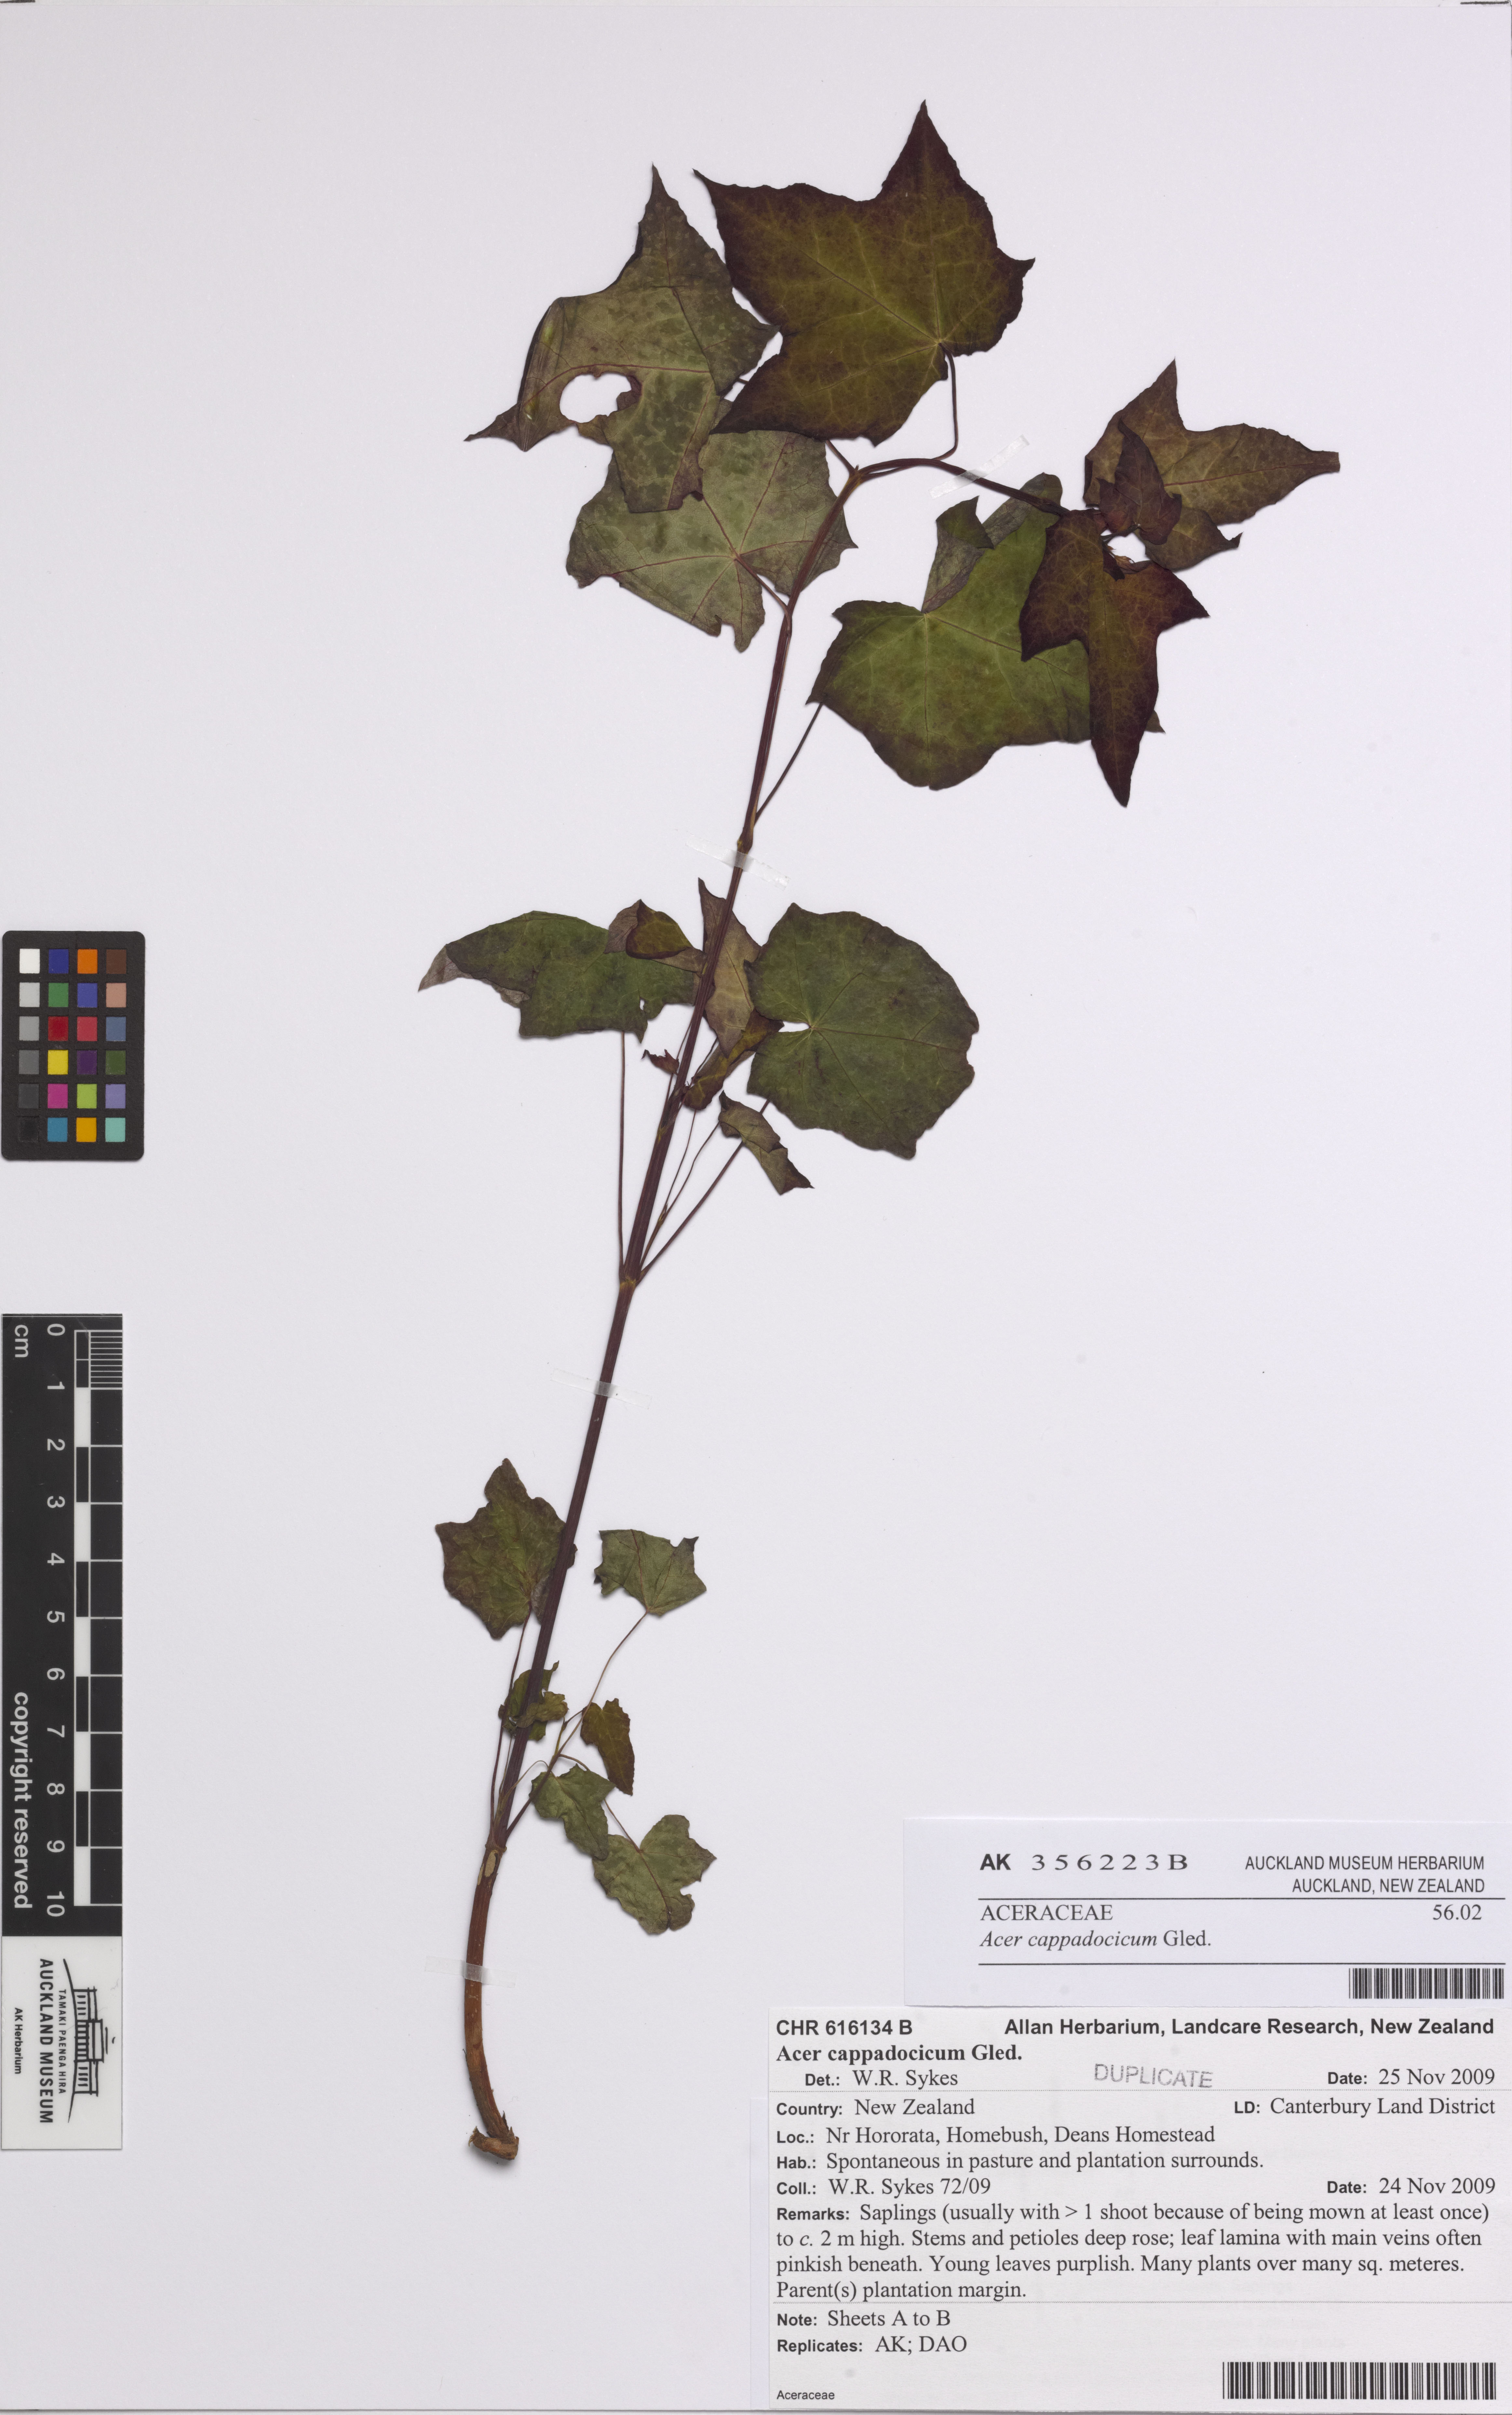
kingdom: Plantae
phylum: Tracheophyta
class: Magnoliopsida
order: Sapindales
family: Sapindaceae
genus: Acer
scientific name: Acer cappadocicum
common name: Cappadocian maple
